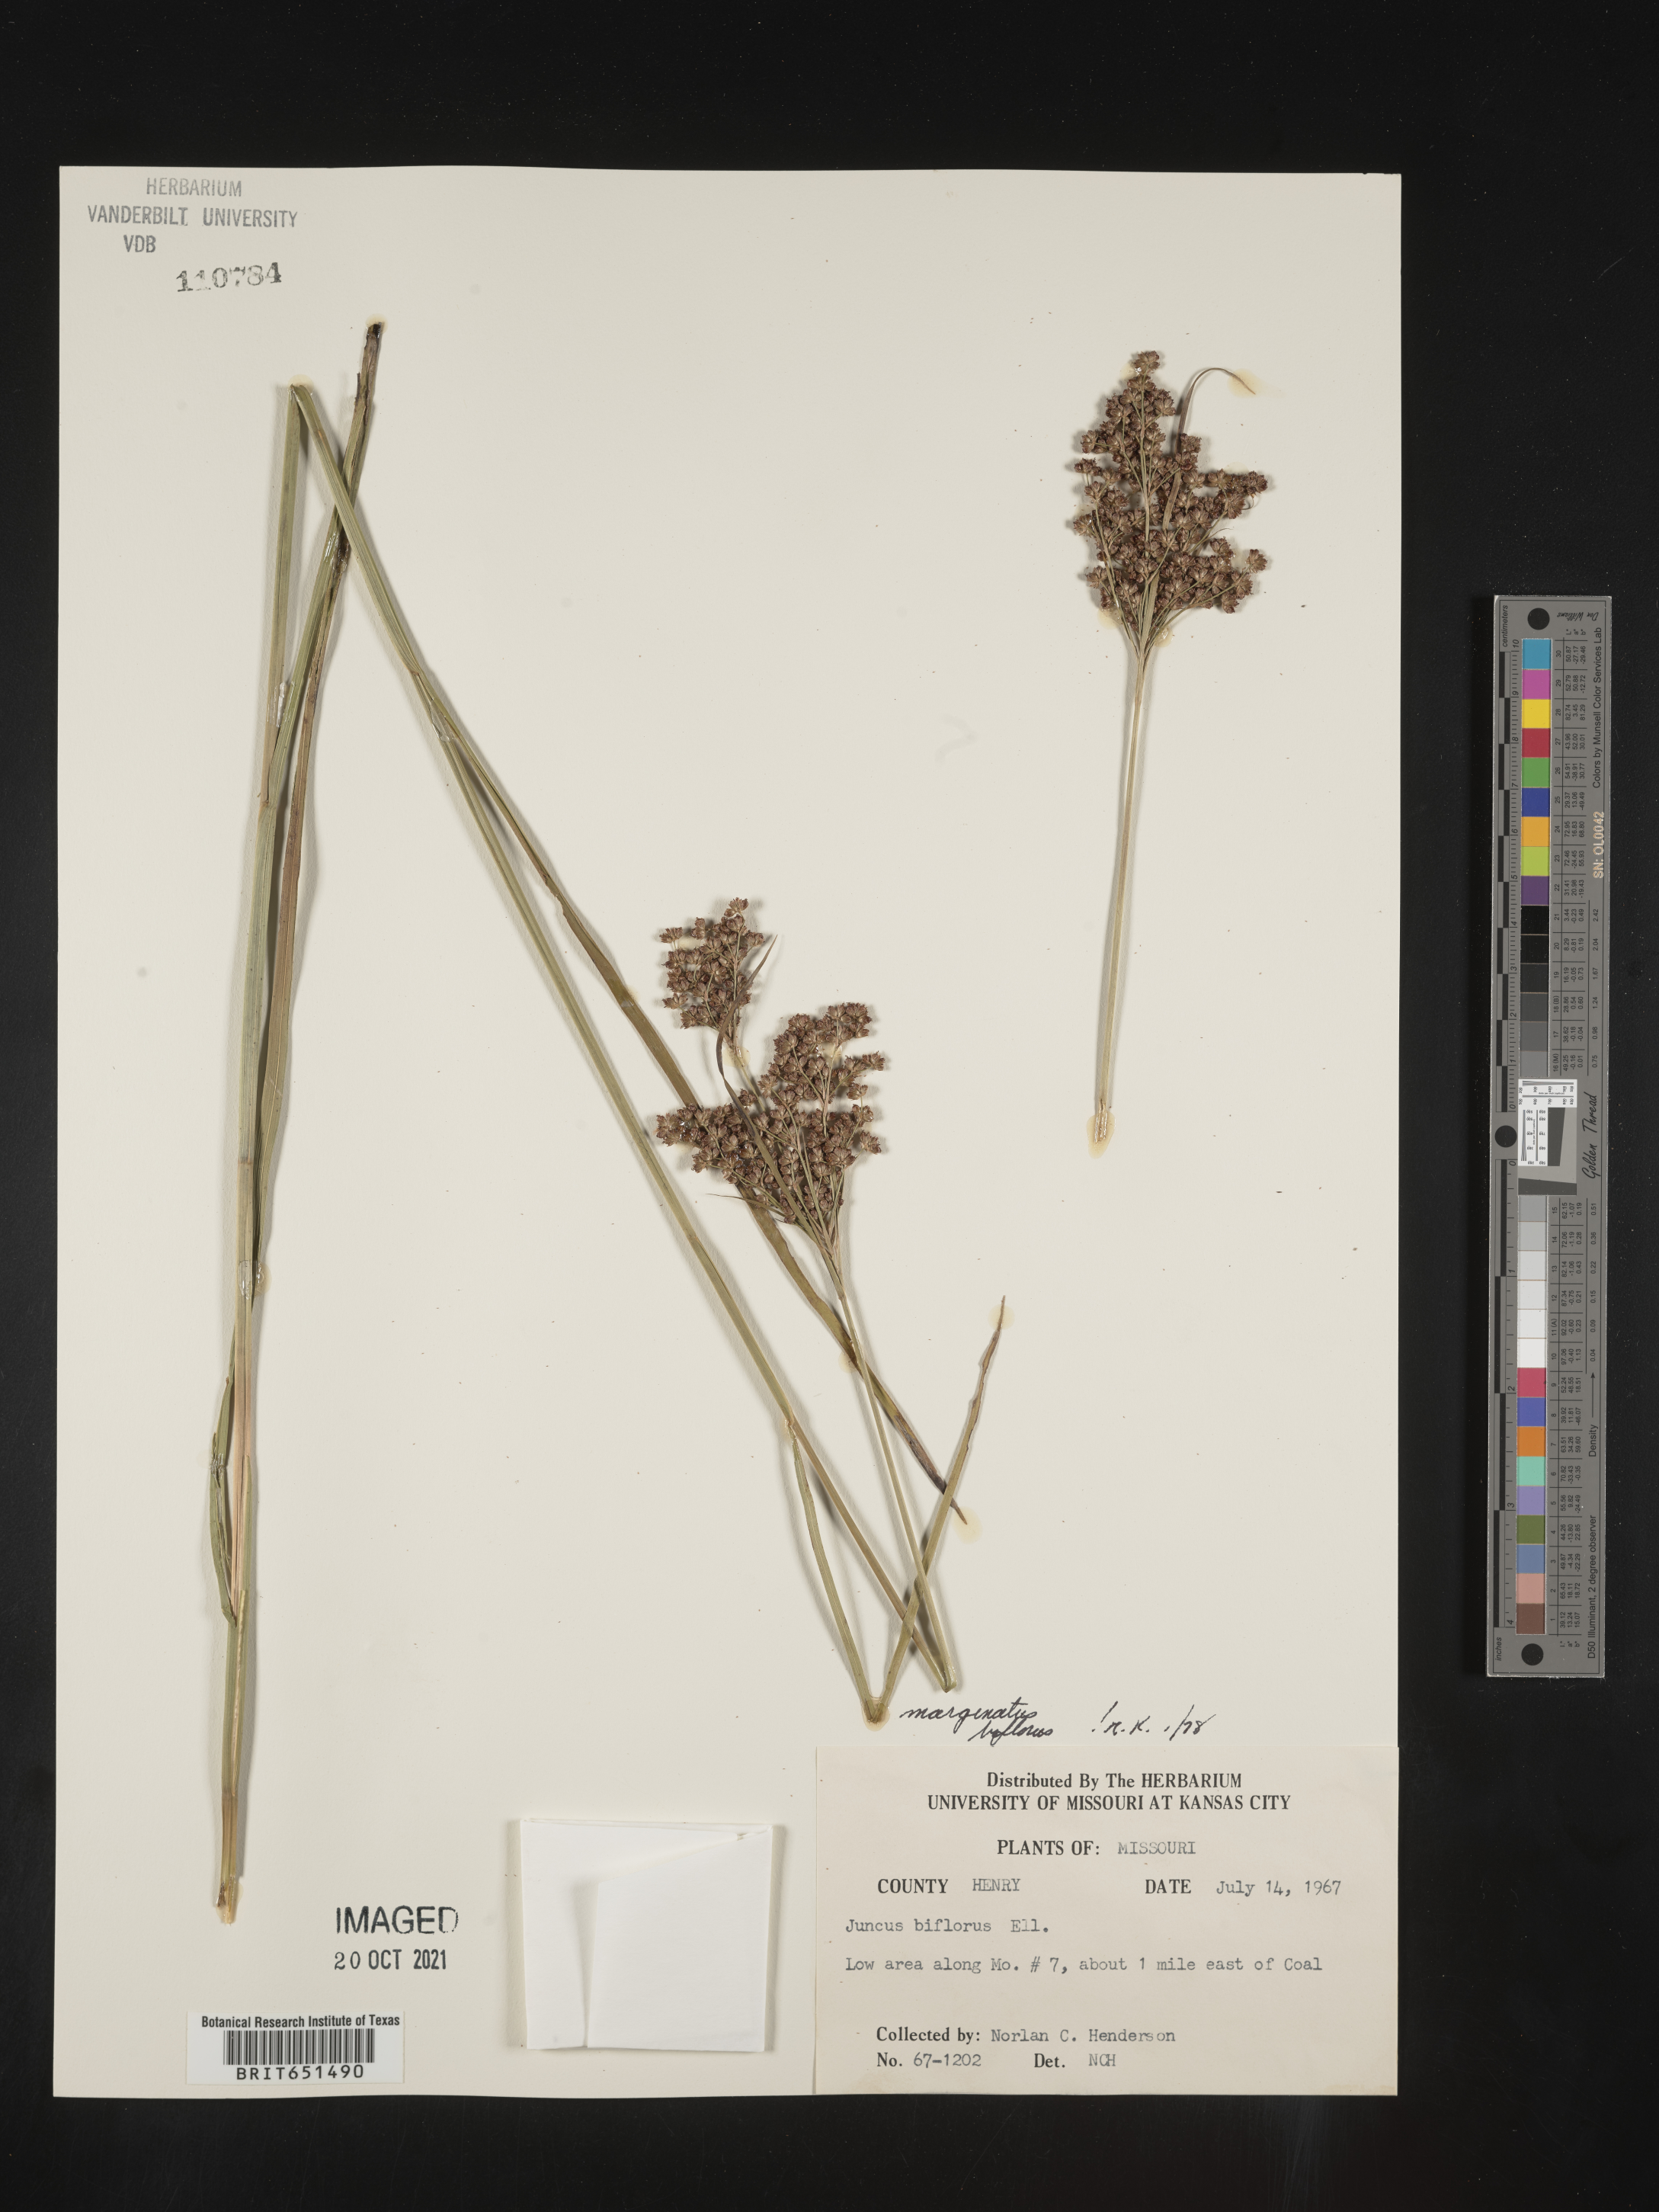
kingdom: Plantae
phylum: Tracheophyta
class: Liliopsida
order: Poales
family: Juncaceae
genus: Juncus
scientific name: Juncus biflorus
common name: Two-flowered rush
